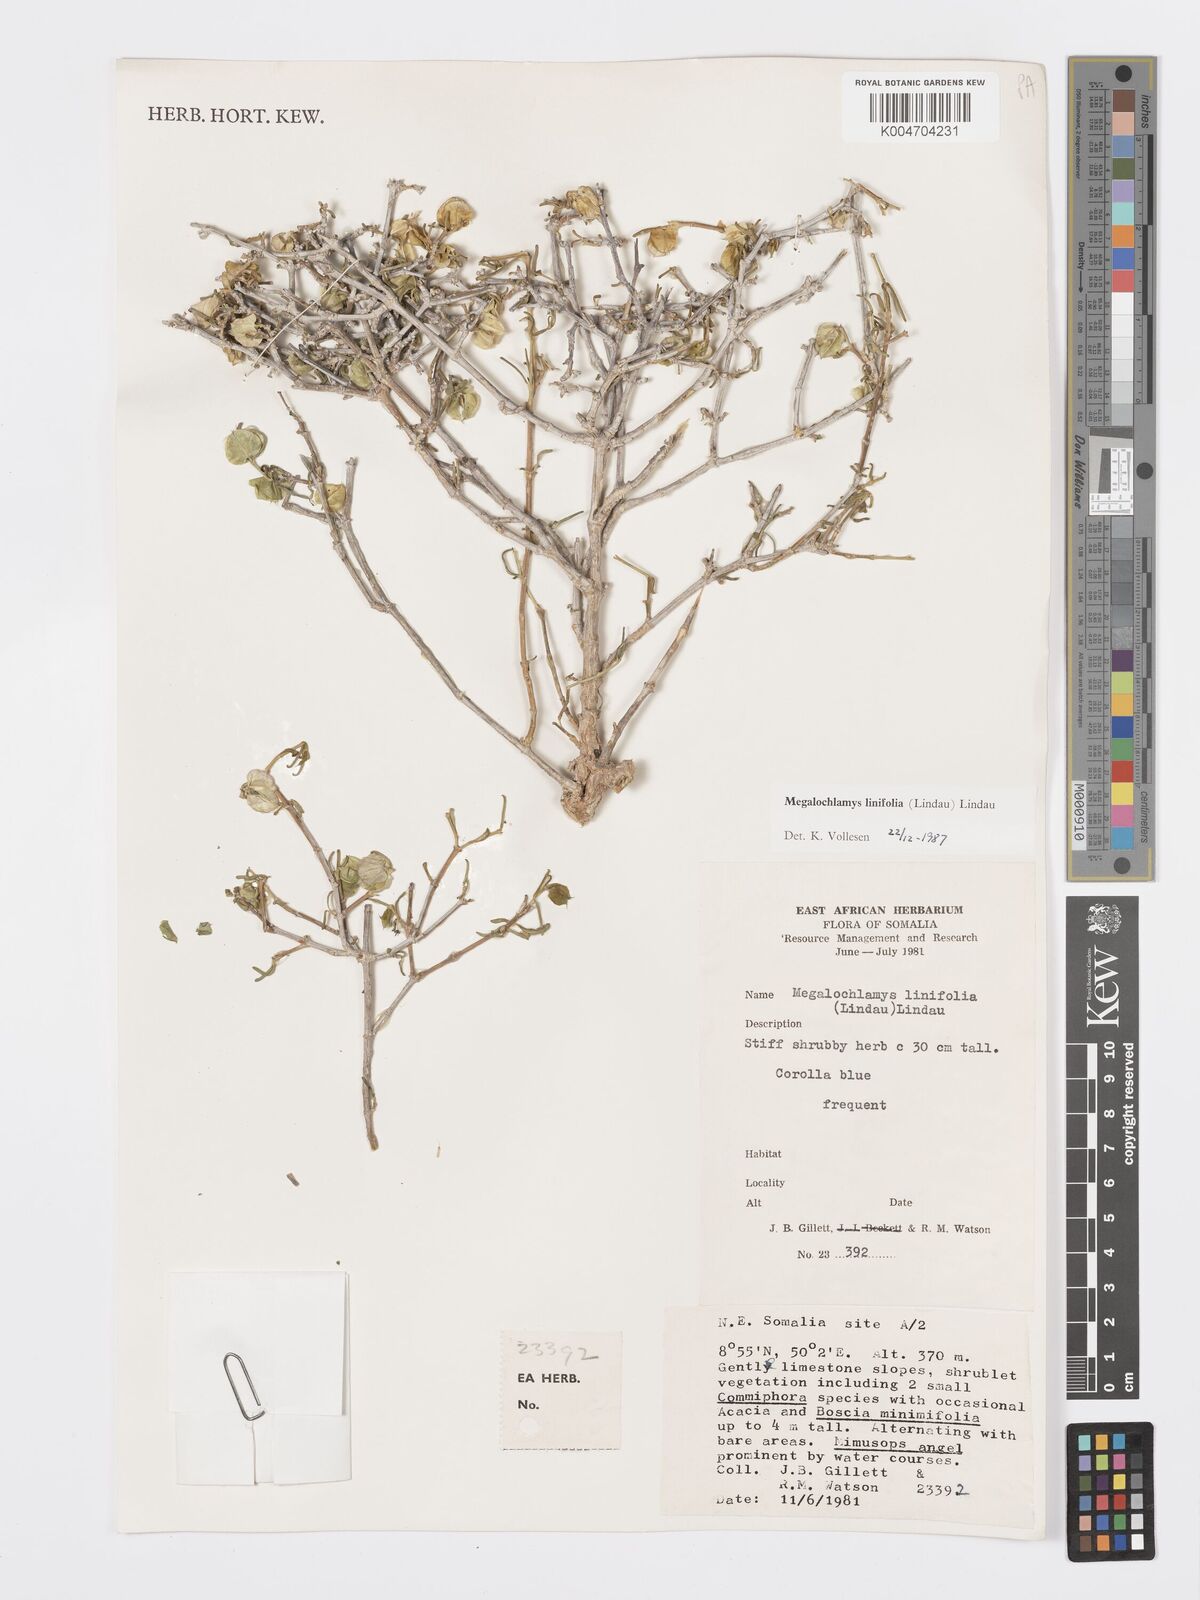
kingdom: Plantae
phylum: Tracheophyta
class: Magnoliopsida
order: Lamiales
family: Acanthaceae
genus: Megalochlamys
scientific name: Megalochlamys linifolia
